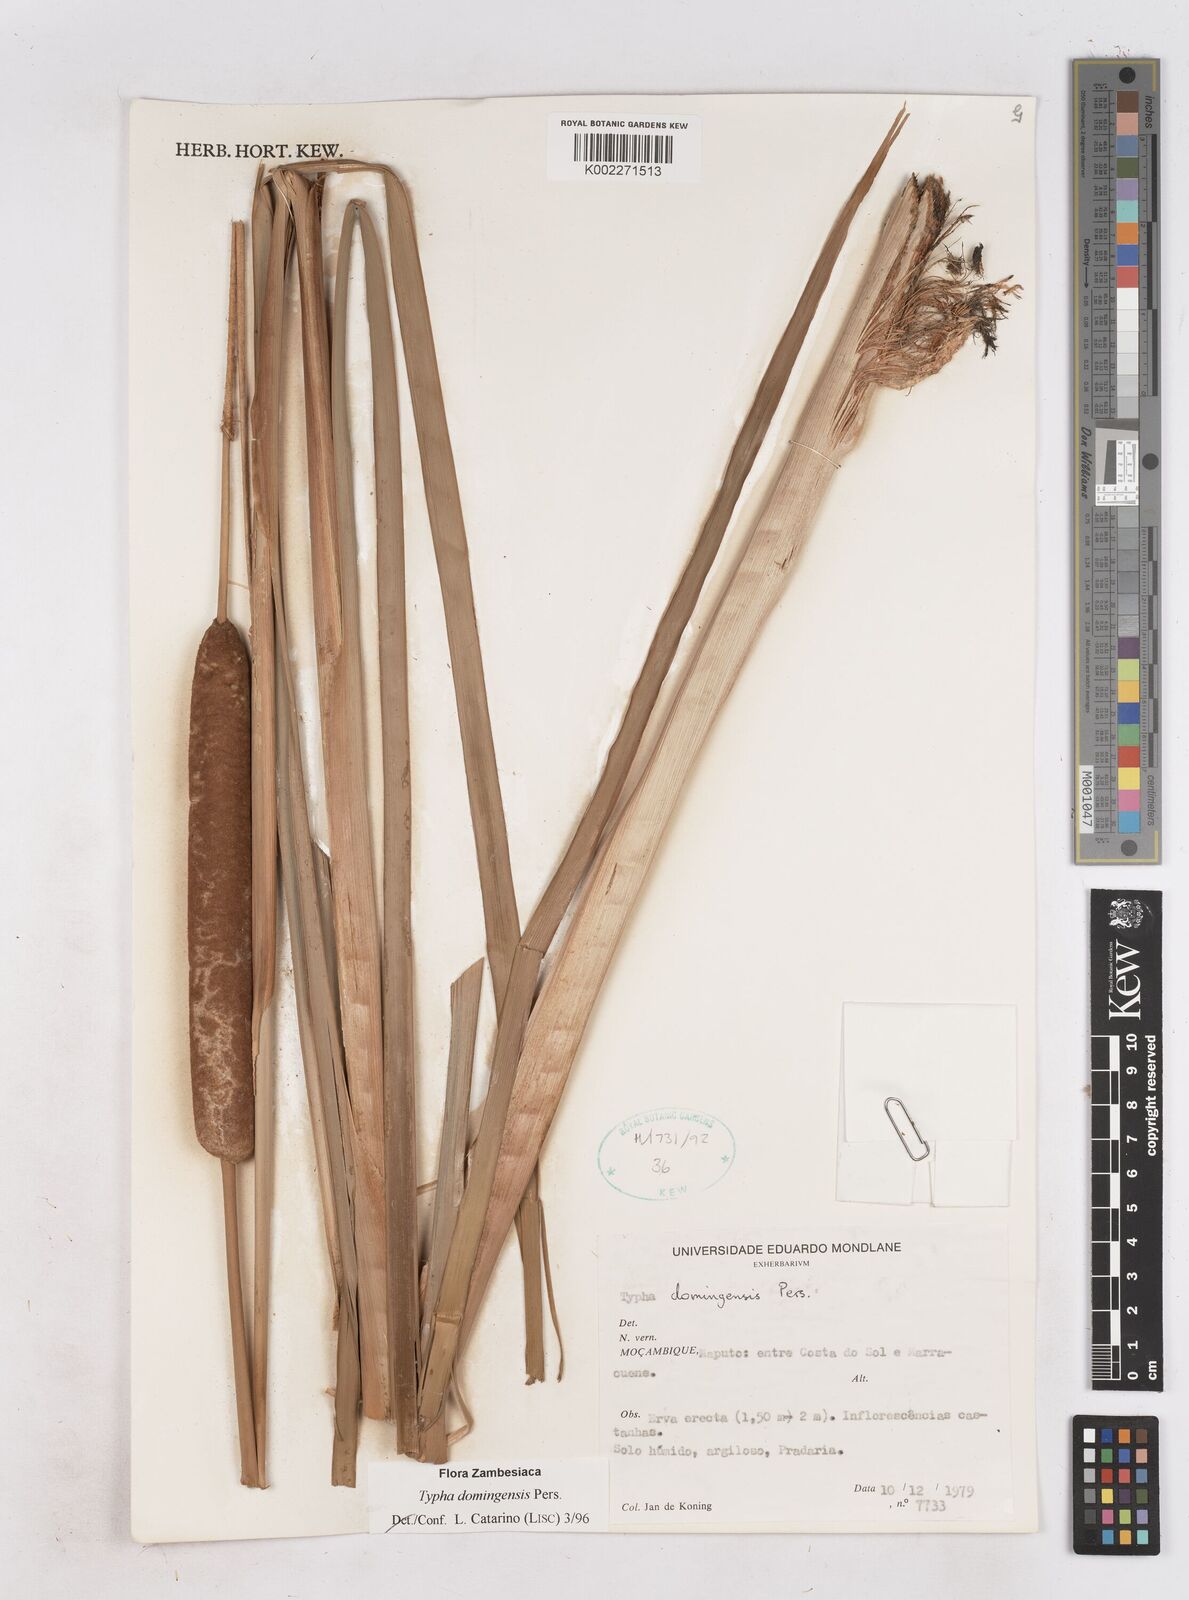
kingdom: Plantae
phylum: Tracheophyta
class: Liliopsida
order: Poales
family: Typhaceae
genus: Typha
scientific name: Typha domingensis
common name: Southern cattail
